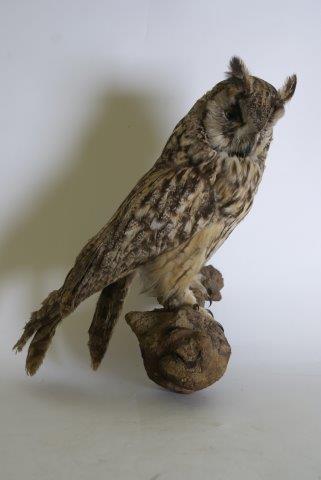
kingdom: Animalia
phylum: Chordata
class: Aves
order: Strigiformes
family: Strigidae
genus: Asio
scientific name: Asio otus
